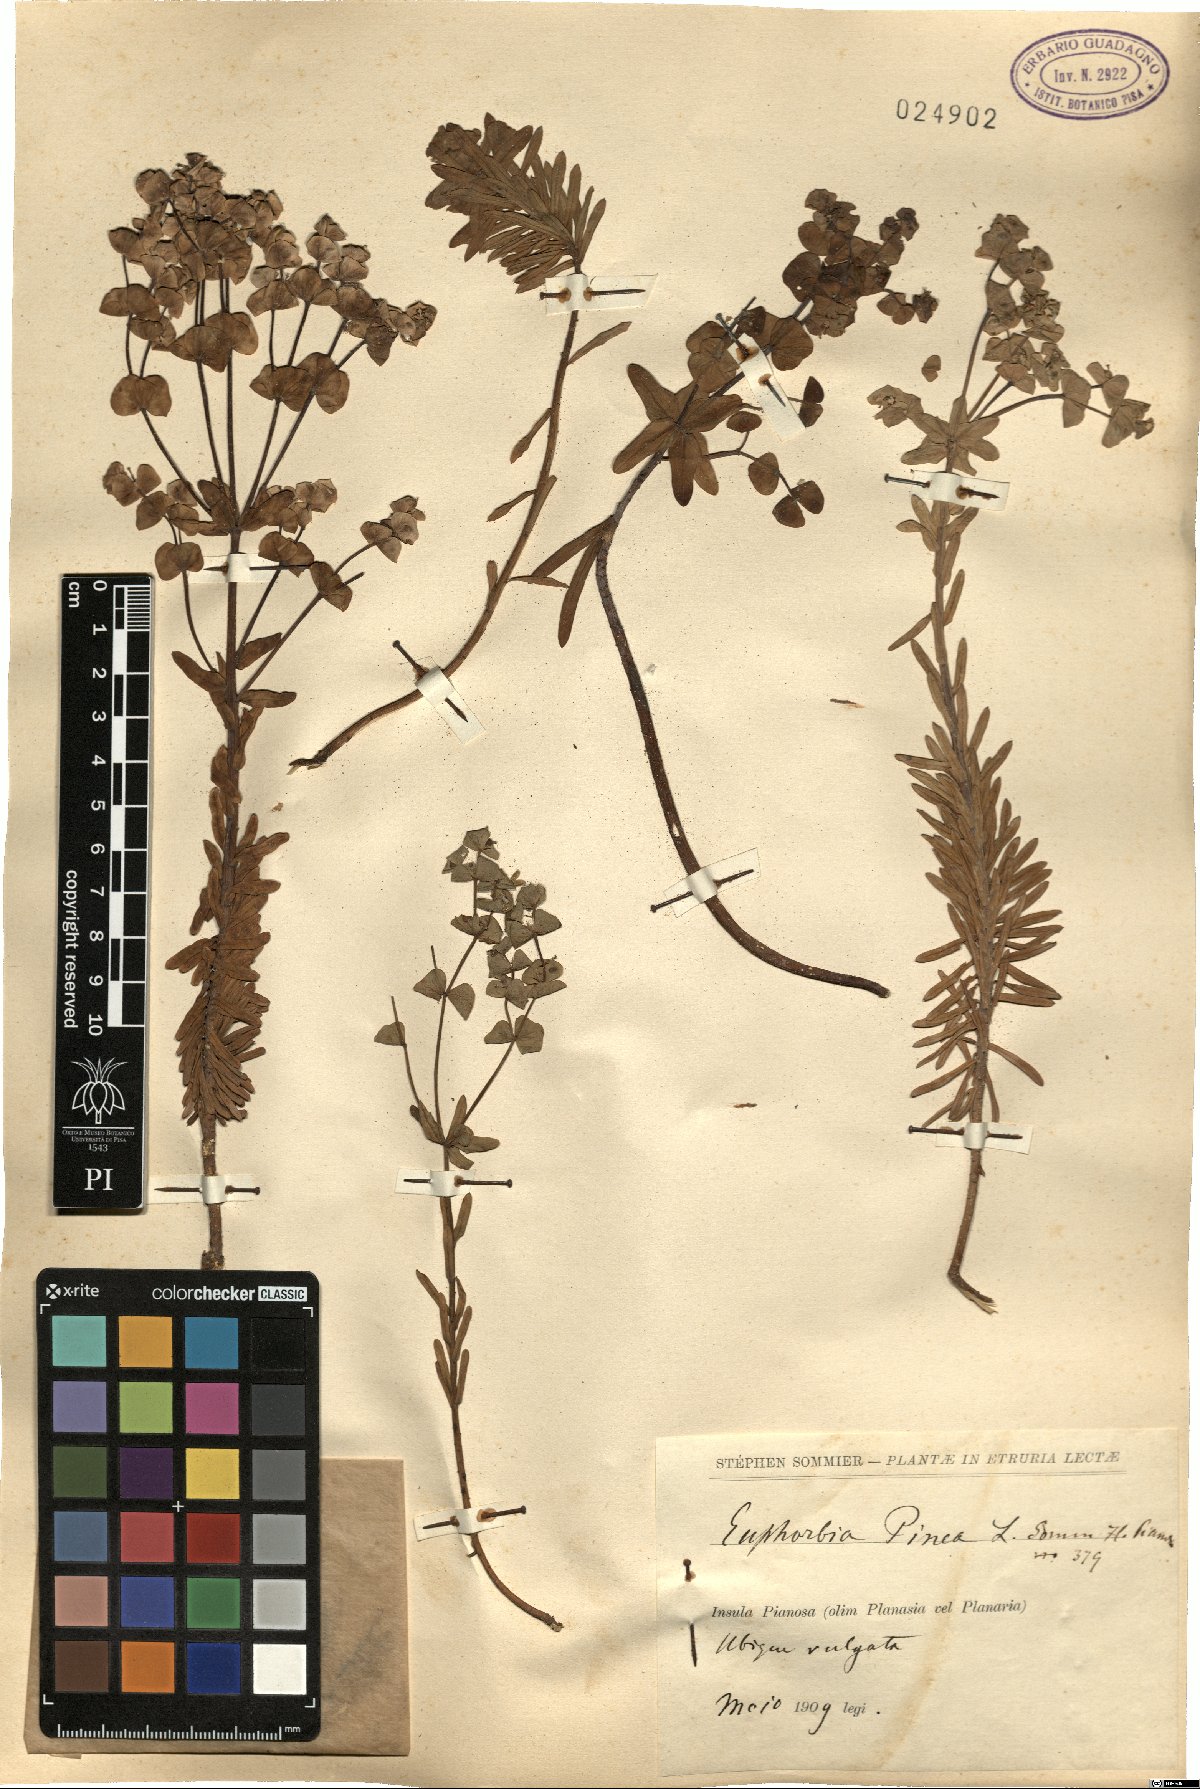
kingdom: Plantae
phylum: Tracheophyta
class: Magnoliopsida
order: Malpighiales
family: Euphorbiaceae
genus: Euphorbia
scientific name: Euphorbia segetalis
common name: Corn spurge
